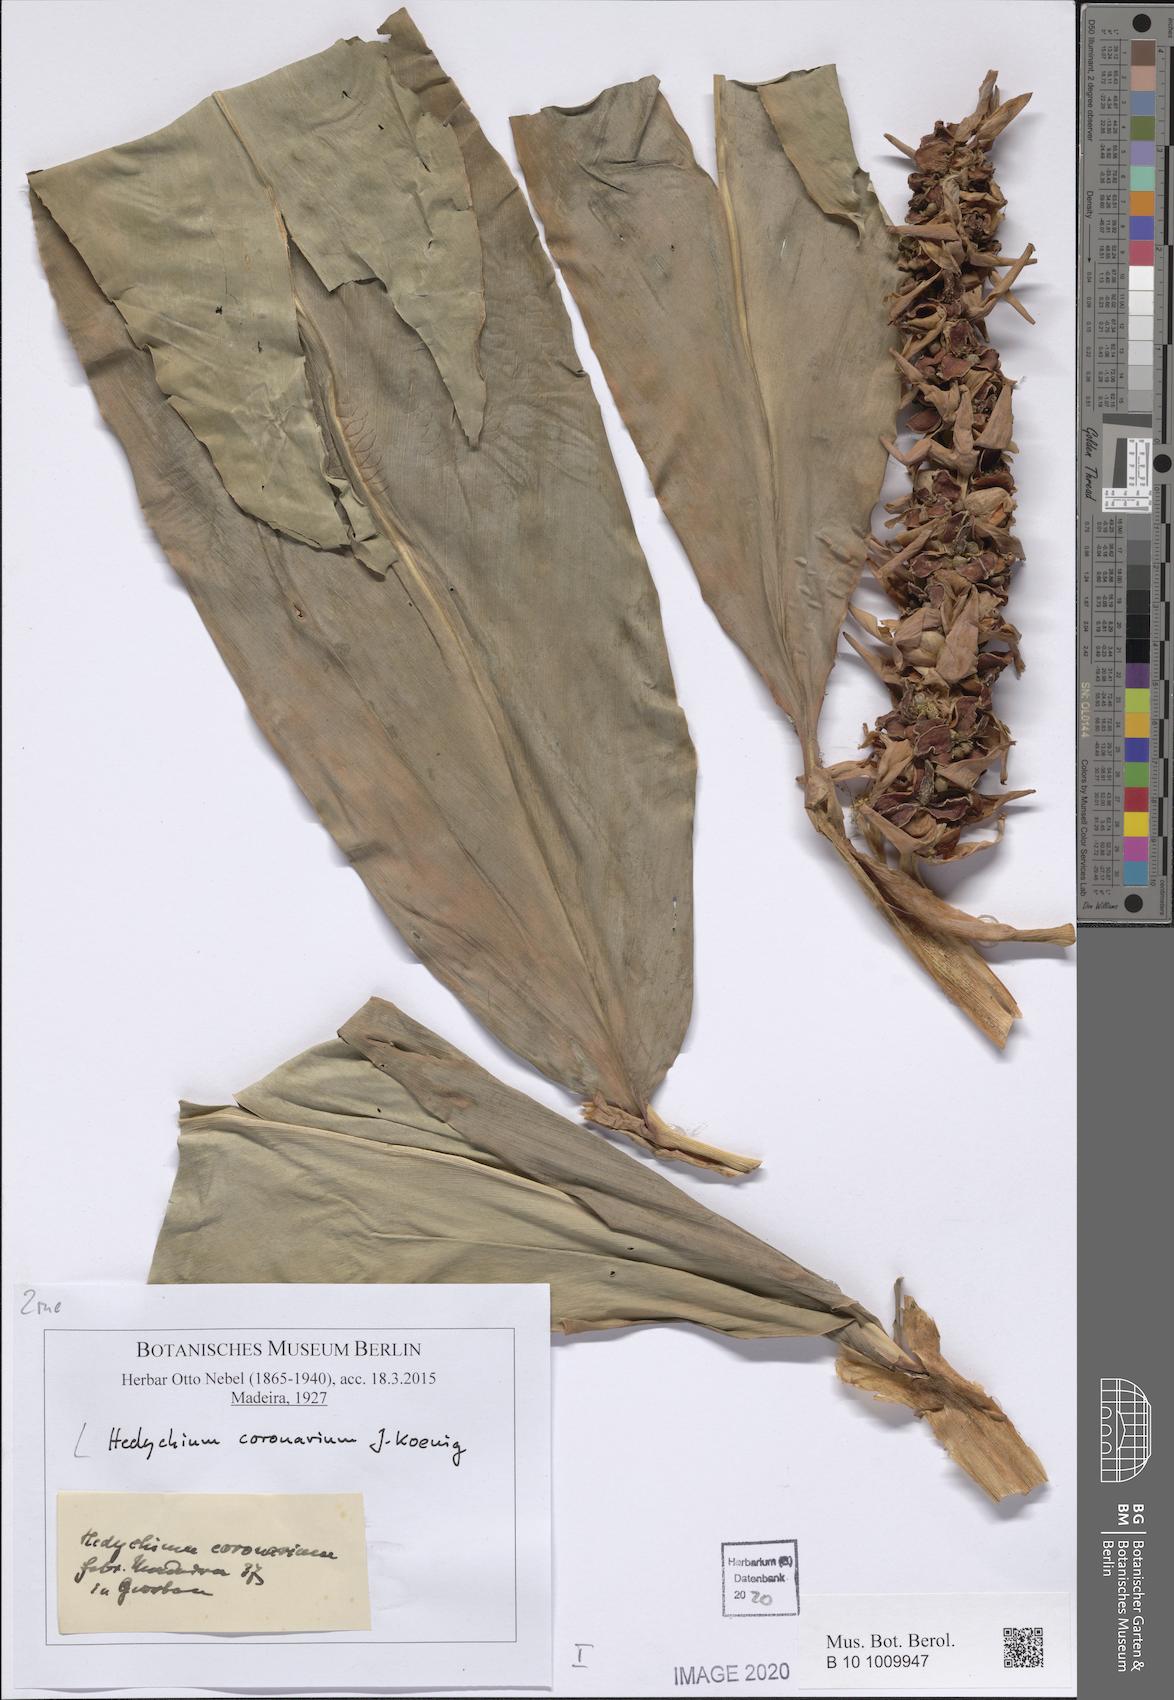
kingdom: Plantae
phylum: Tracheophyta
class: Liliopsida
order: Zingiberales
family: Zingiberaceae
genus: Hedychium
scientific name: Hedychium coronarium
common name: White garland-lily
